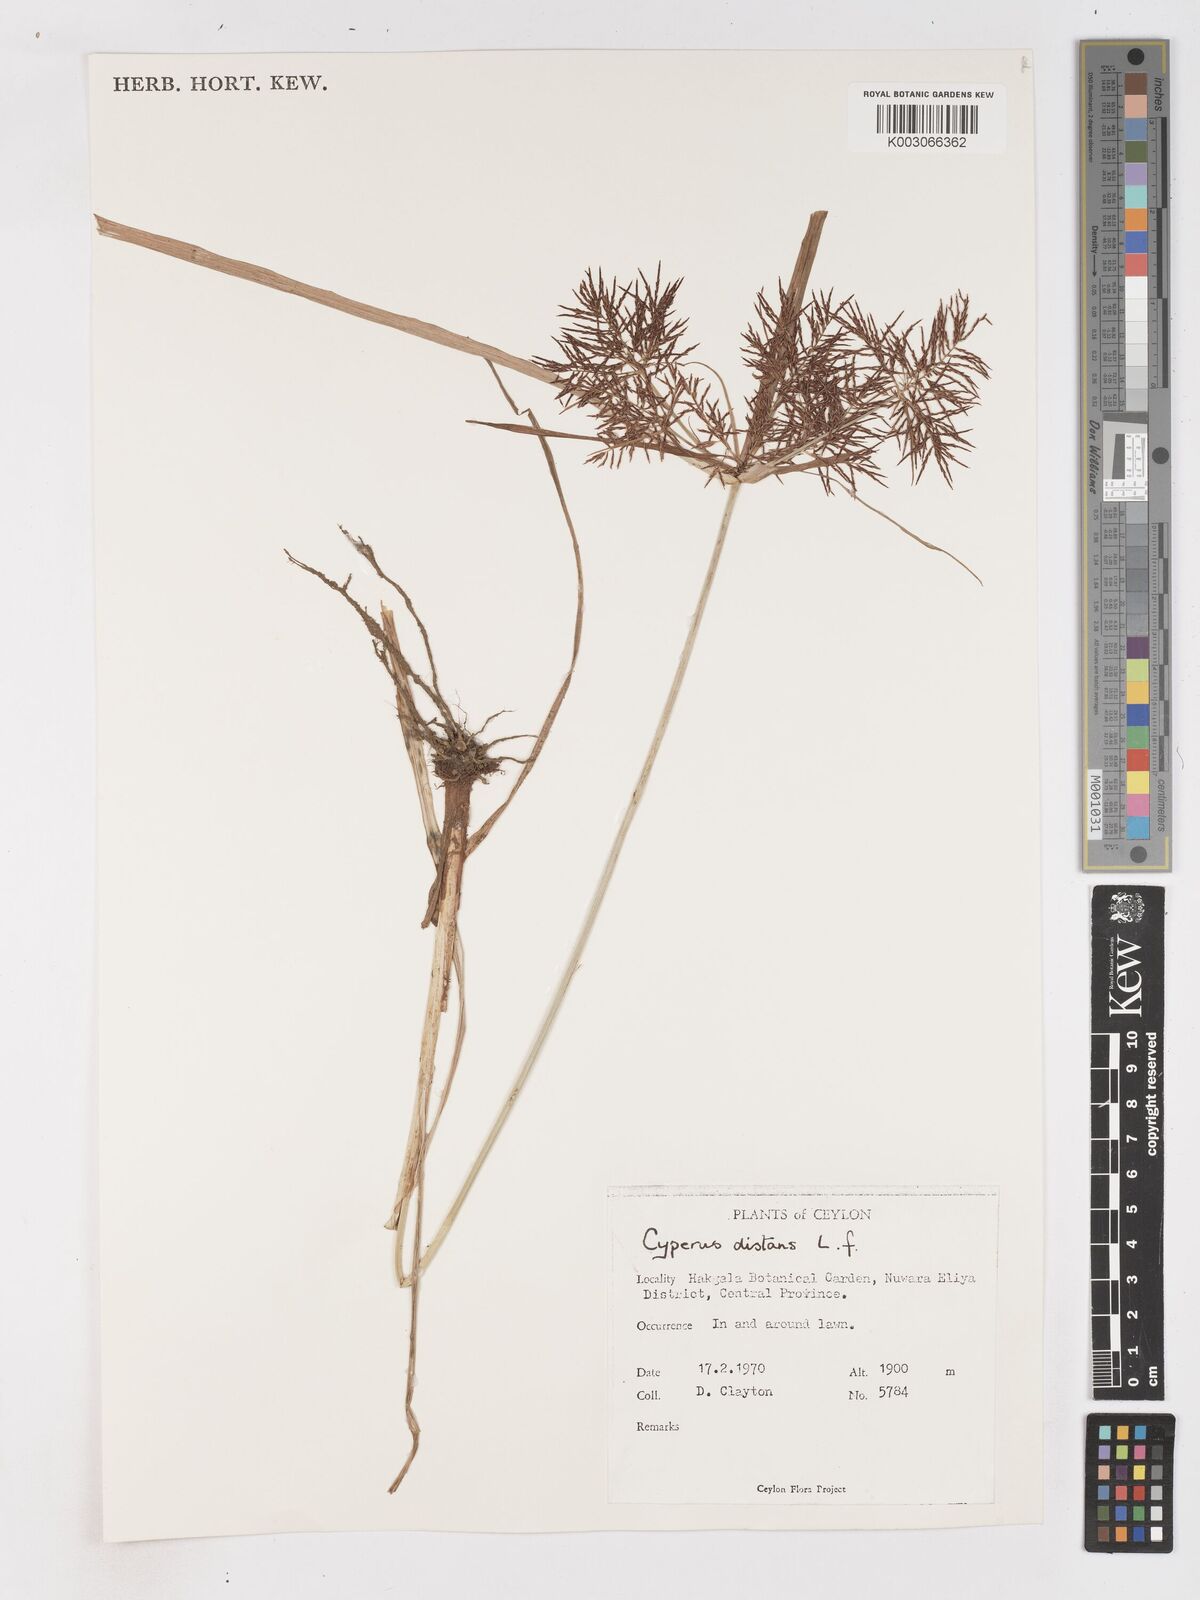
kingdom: Plantae
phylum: Tracheophyta
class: Liliopsida
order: Poales
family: Cyperaceae
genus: Cyperus
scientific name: Cyperus distans
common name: Slender cyperus
